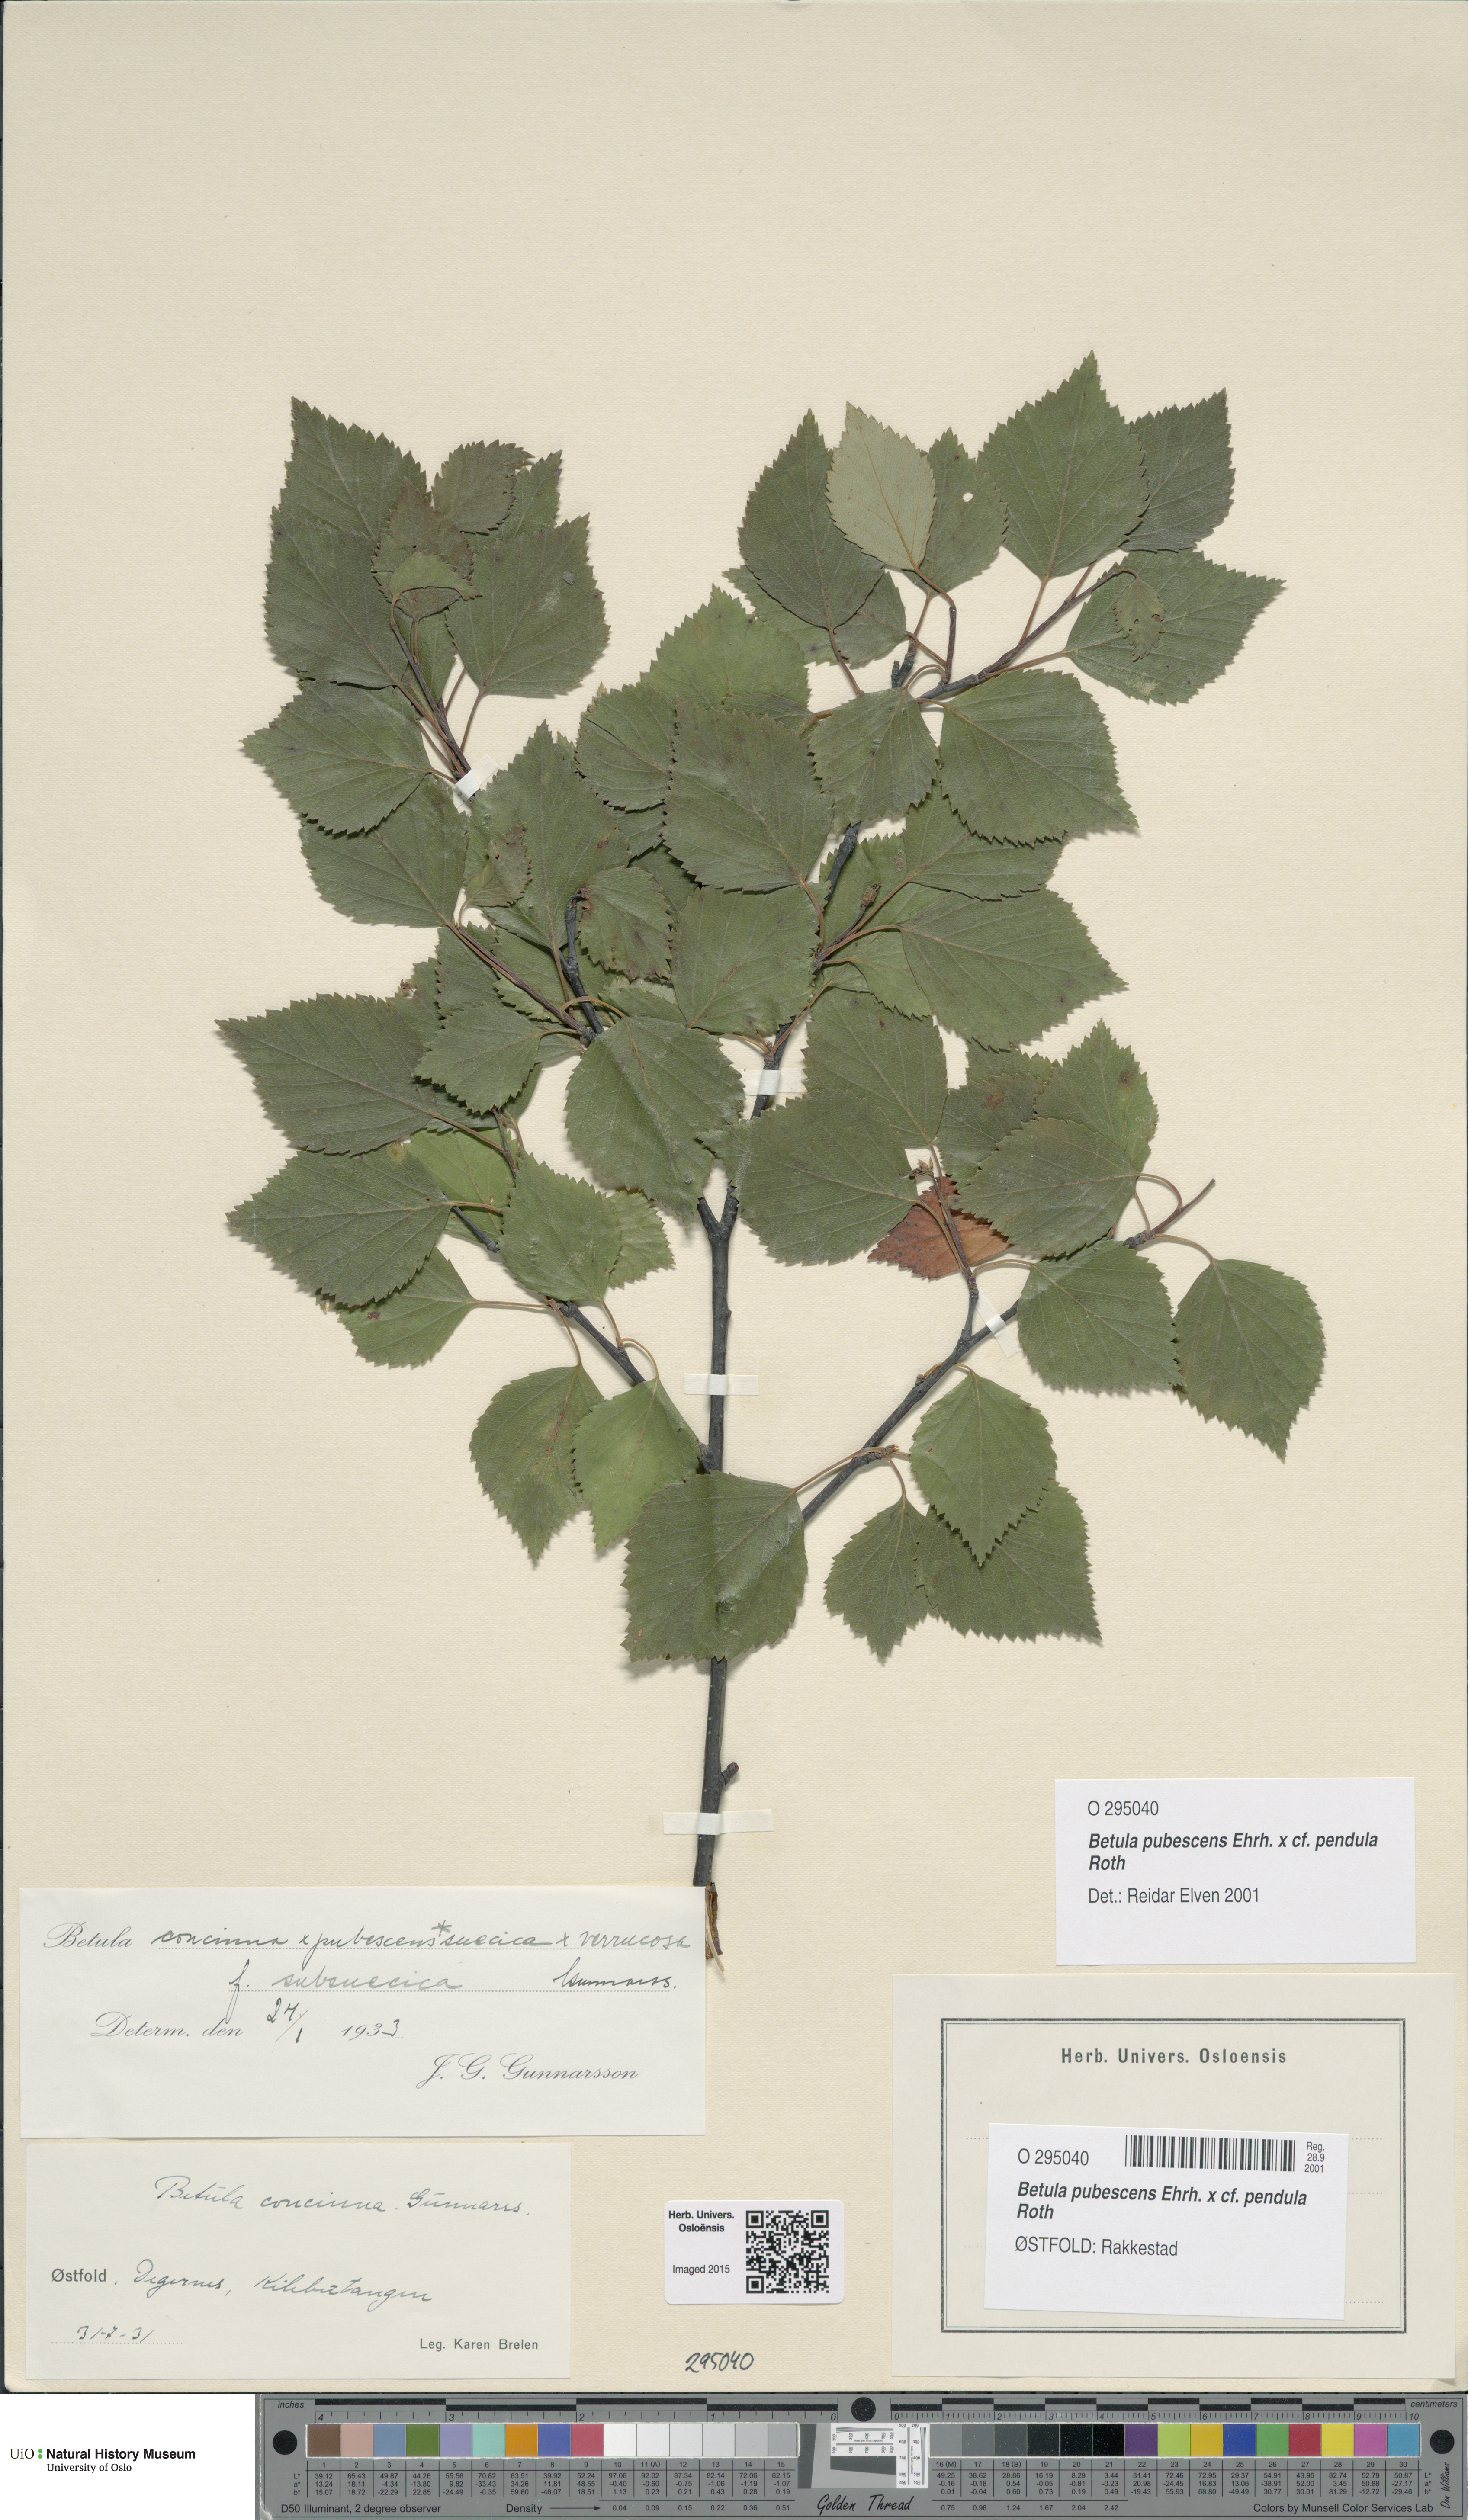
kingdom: Plantae
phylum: Tracheophyta
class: Magnoliopsida
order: Fagales
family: Betulaceae
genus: Betula
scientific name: Betula
